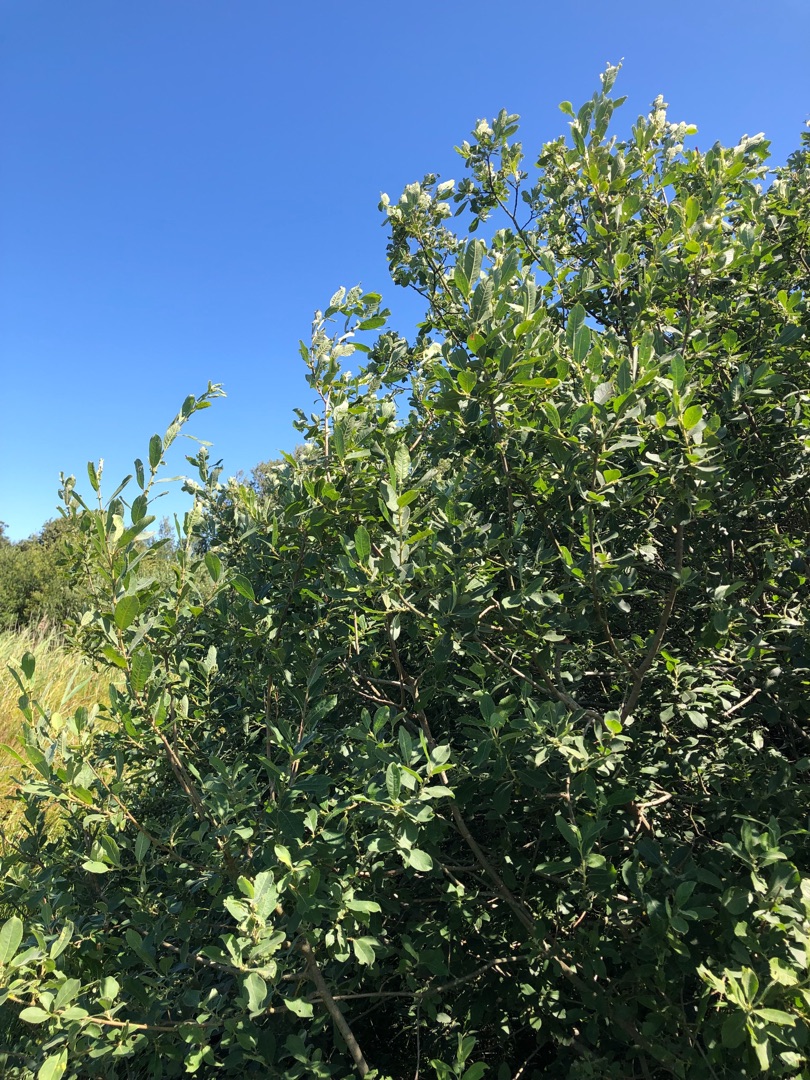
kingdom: Plantae
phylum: Tracheophyta
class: Magnoliopsida
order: Malpighiales
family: Salicaceae
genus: Salix
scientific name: Salix cinerea
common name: Grå-pil
